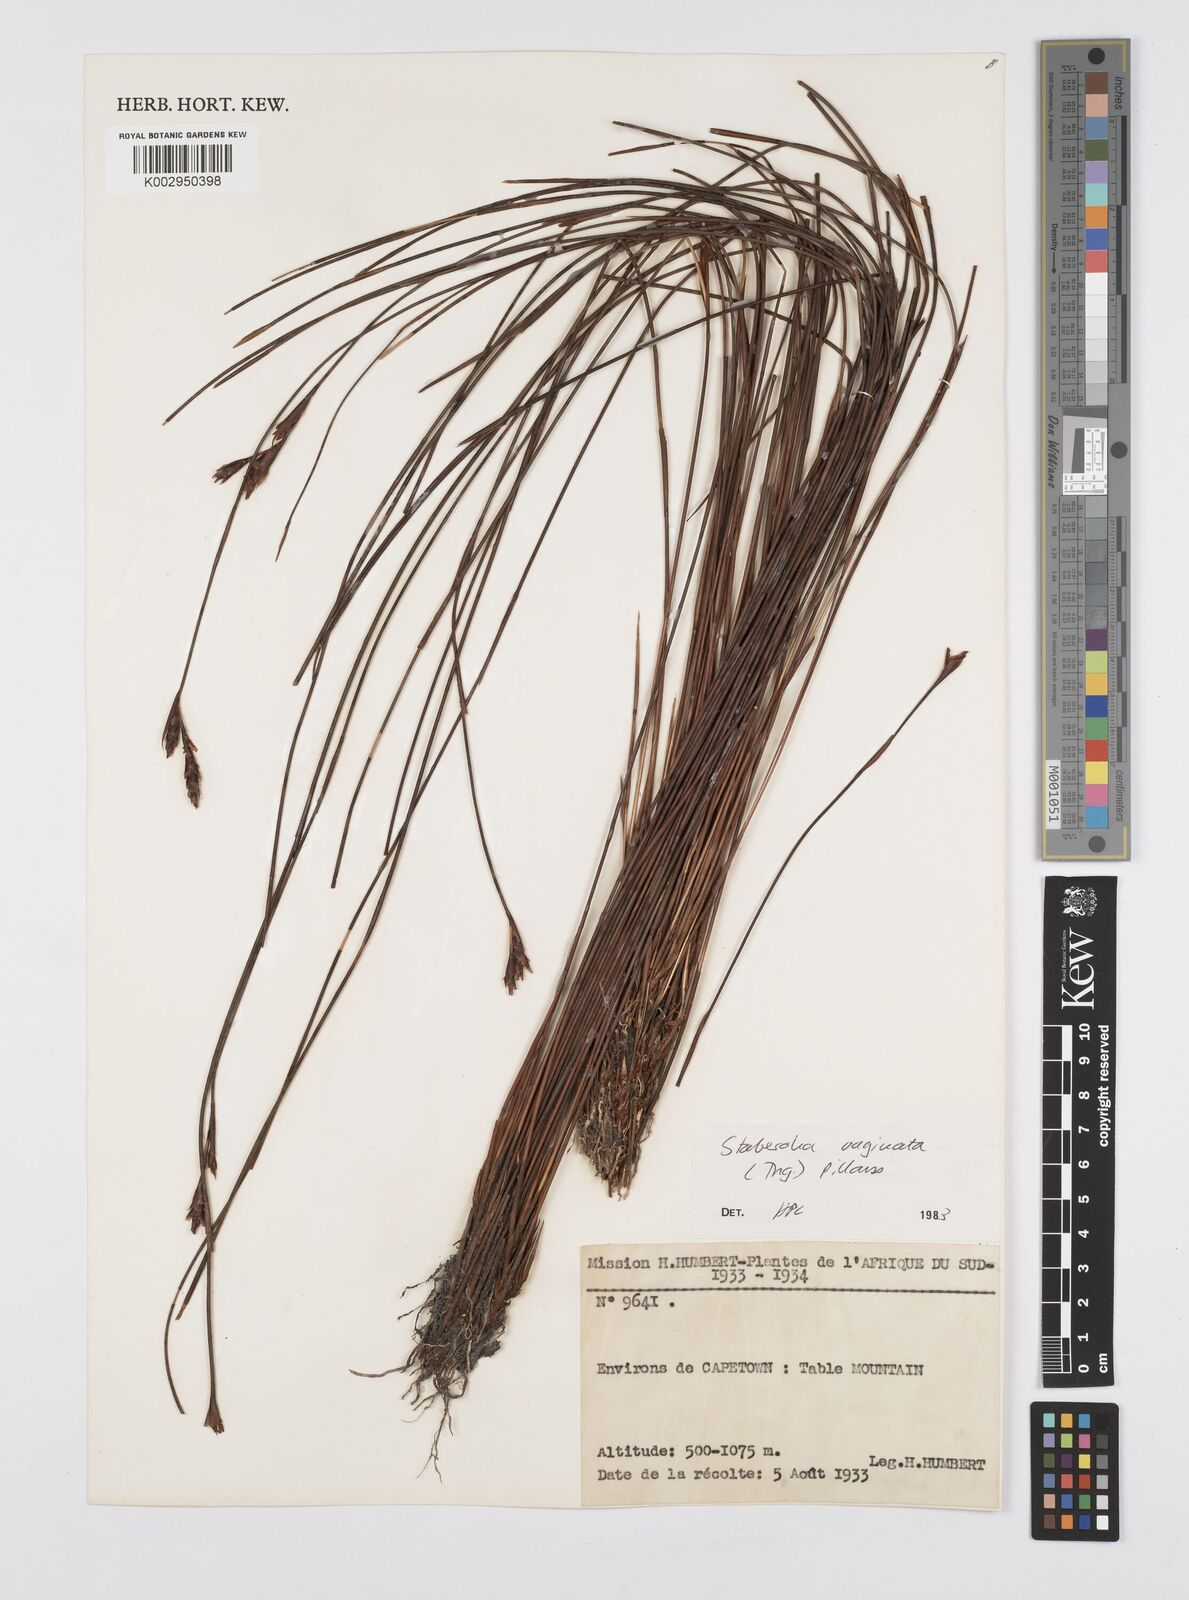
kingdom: Plantae
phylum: Tracheophyta
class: Liliopsida
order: Poales
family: Restionaceae
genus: Staberoha
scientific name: Staberoha vaginata
